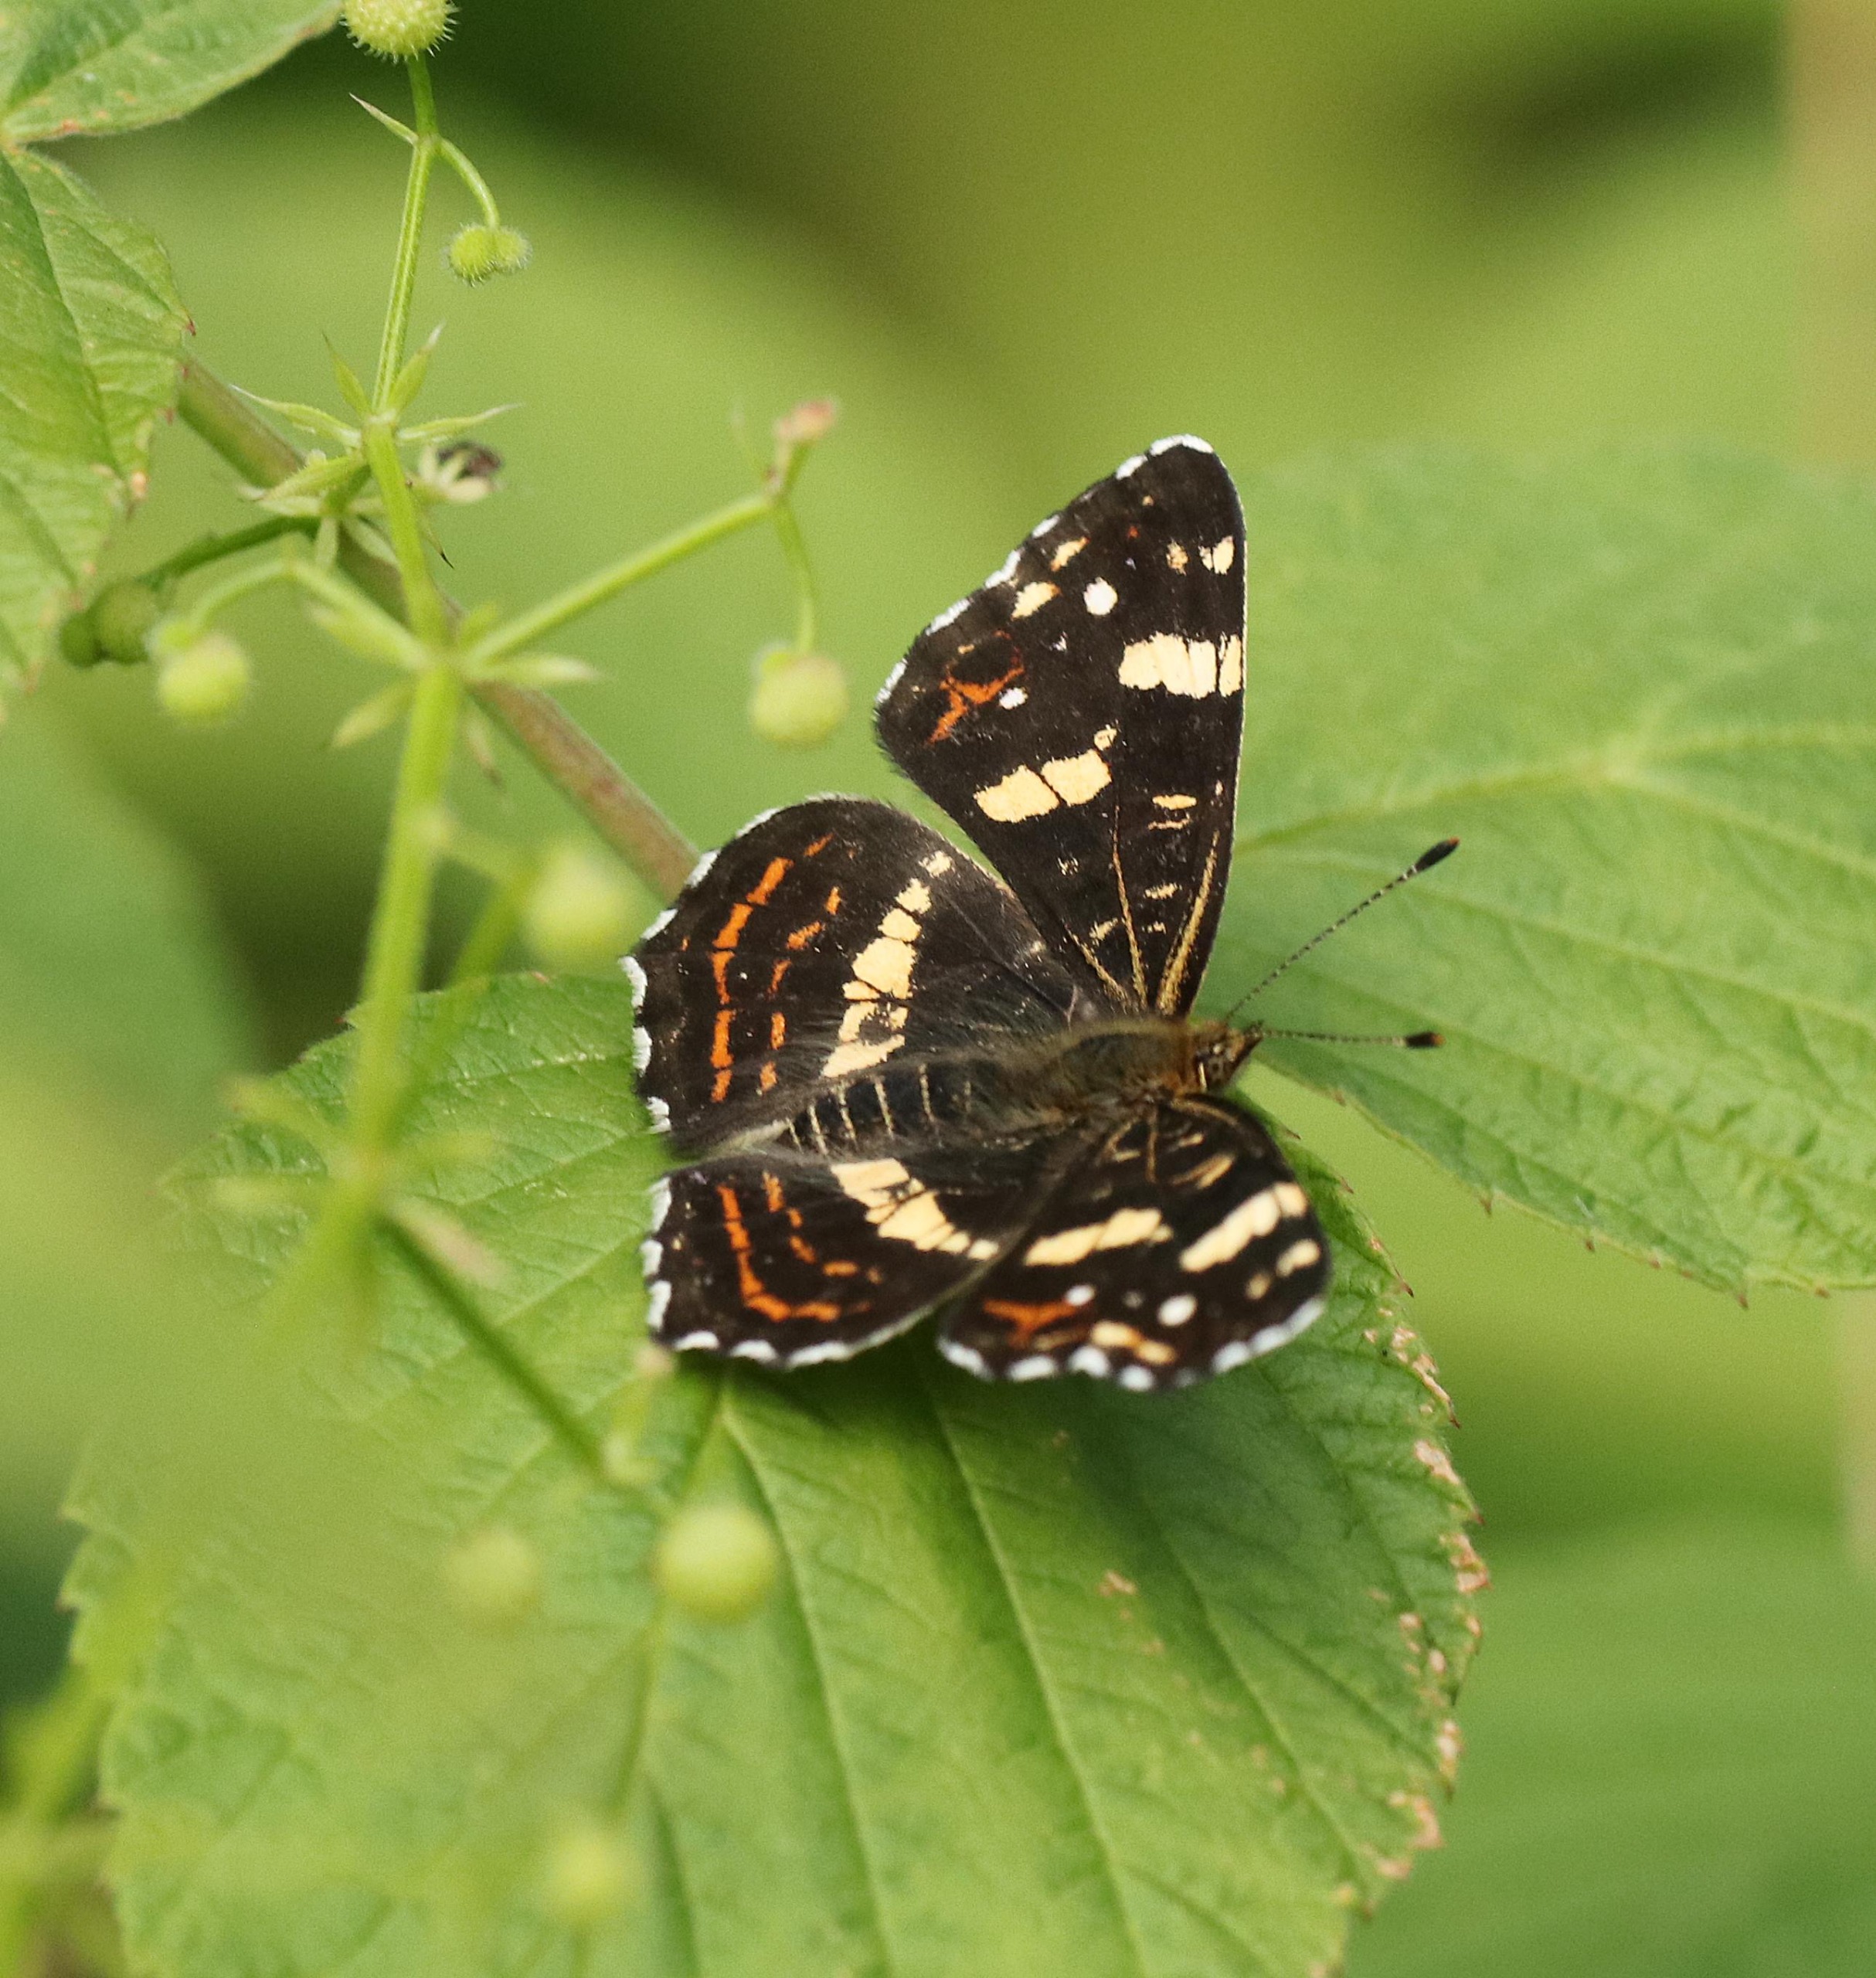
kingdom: Animalia
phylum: Arthropoda
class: Insecta
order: Lepidoptera
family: Nymphalidae
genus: Araschnia
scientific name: Araschnia levana
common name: Nældesommerfugl
